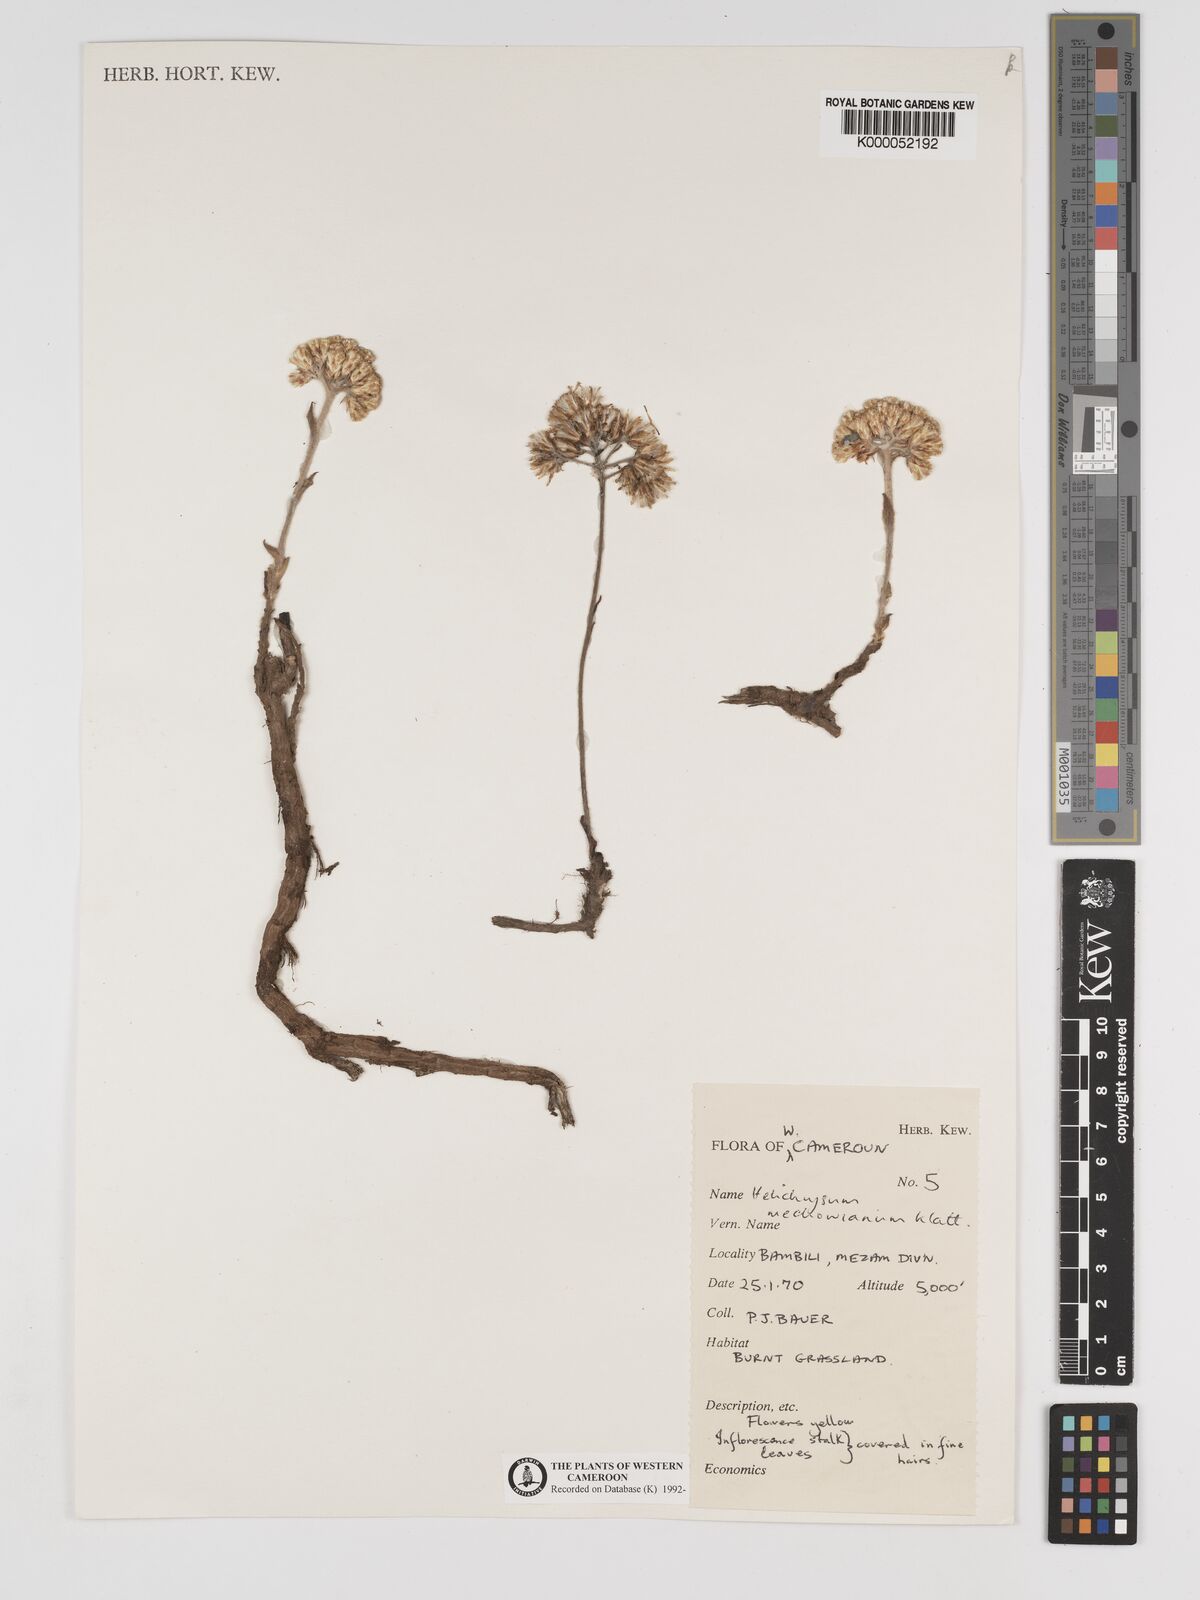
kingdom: Plantae
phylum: Tracheophyta
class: Magnoliopsida
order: Asterales
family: Asteraceae
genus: Helichrysum
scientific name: Helichrysum mechowianum
